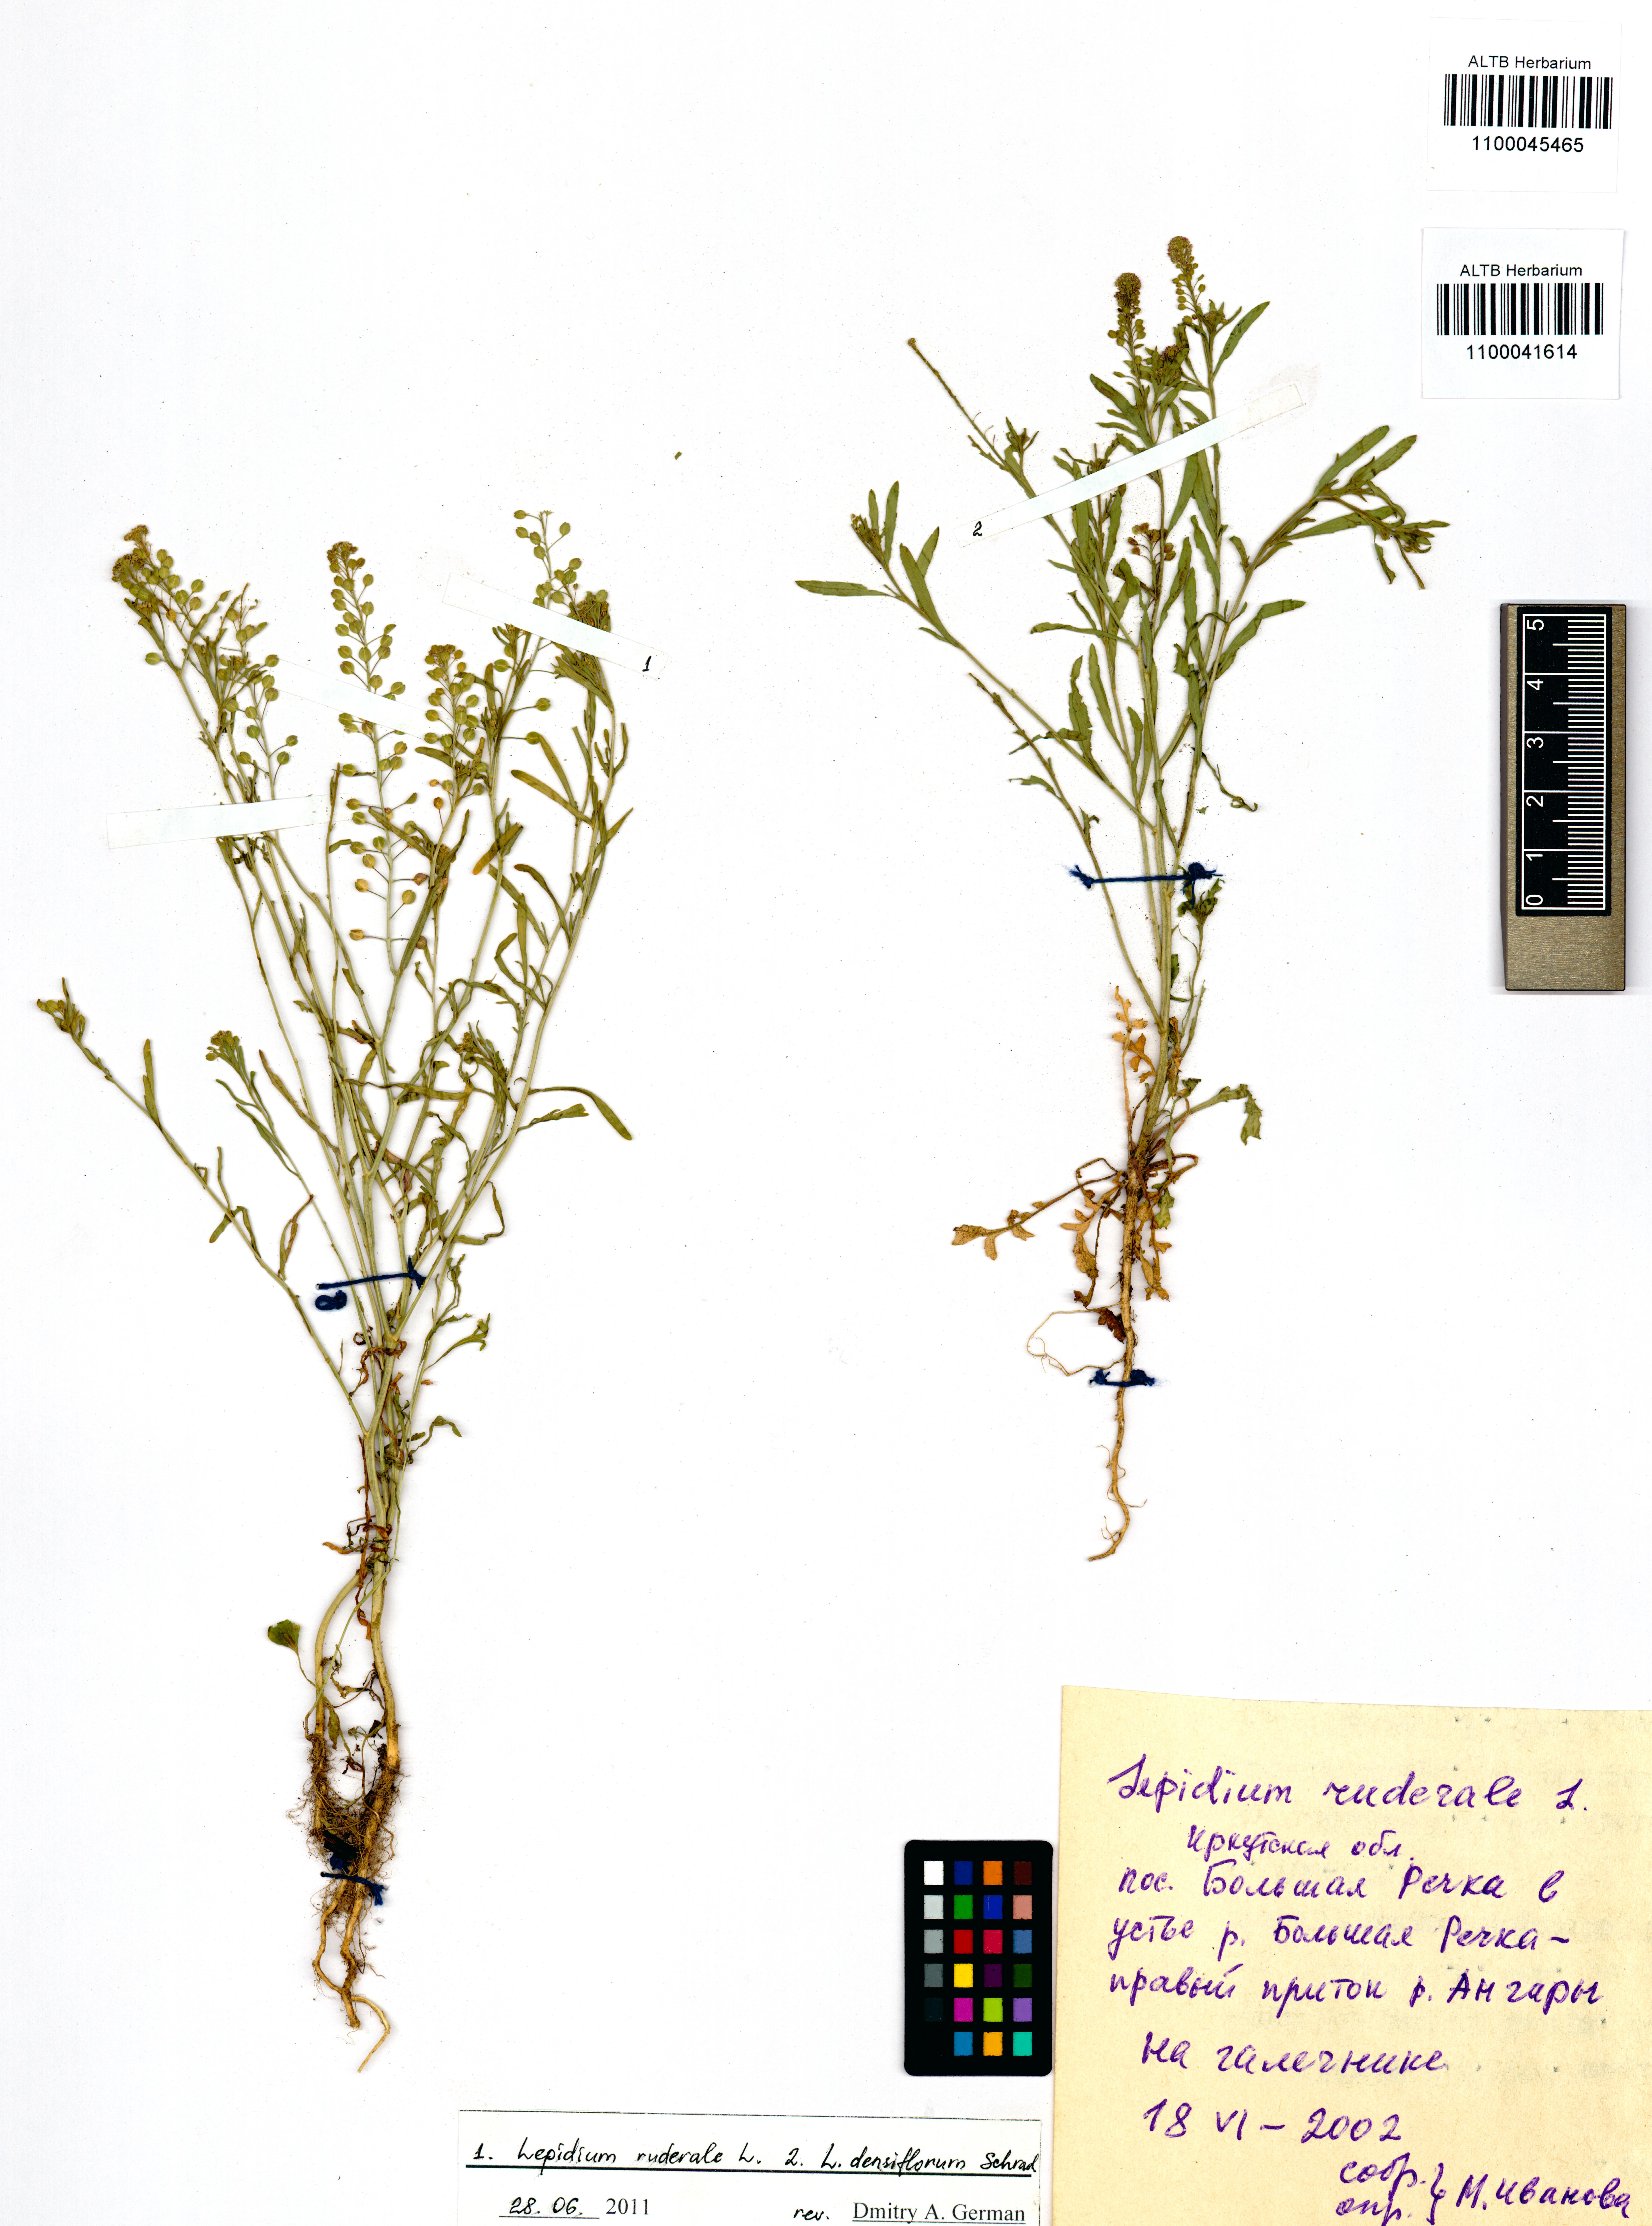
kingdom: Plantae
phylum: Tracheophyta
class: Magnoliopsida
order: Brassicales
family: Brassicaceae
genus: Lepidium
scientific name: Lepidium densiflorum
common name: Miner's pepperwort
